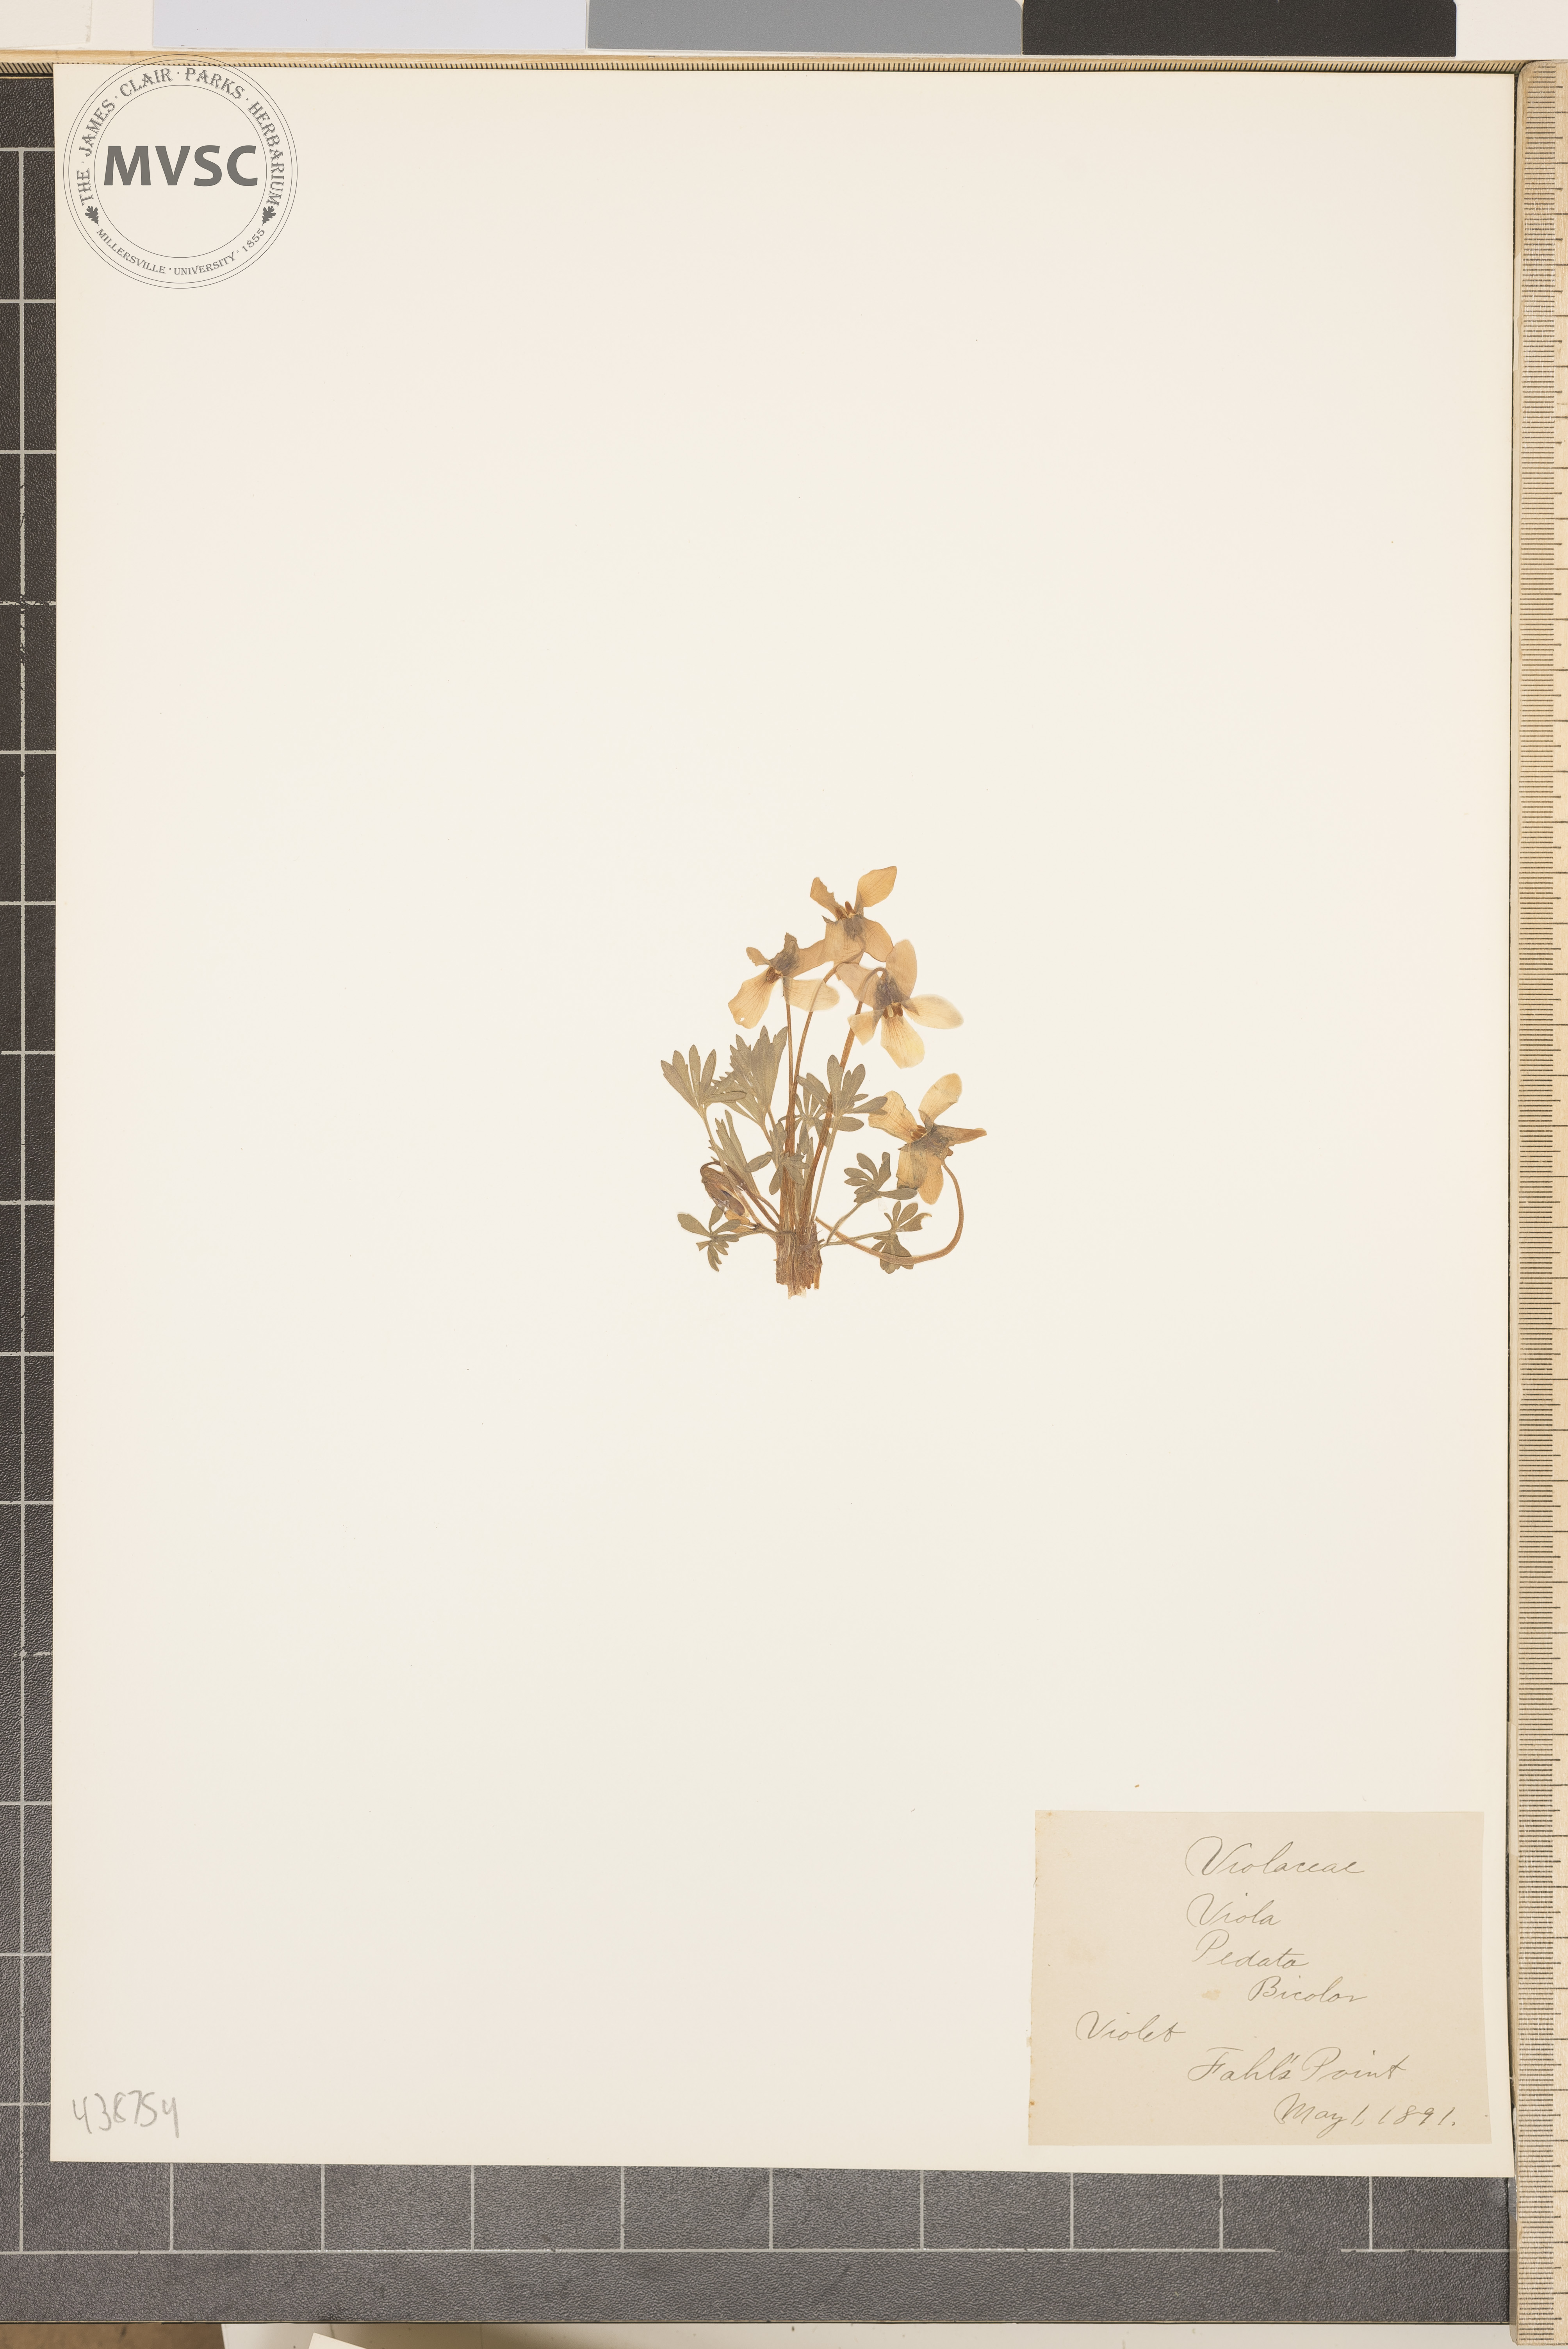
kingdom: Plantae
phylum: Tracheophyta
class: Magnoliopsida
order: Malpighiales
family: Violaceae
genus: Viola
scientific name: Viola pedata
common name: Violet
